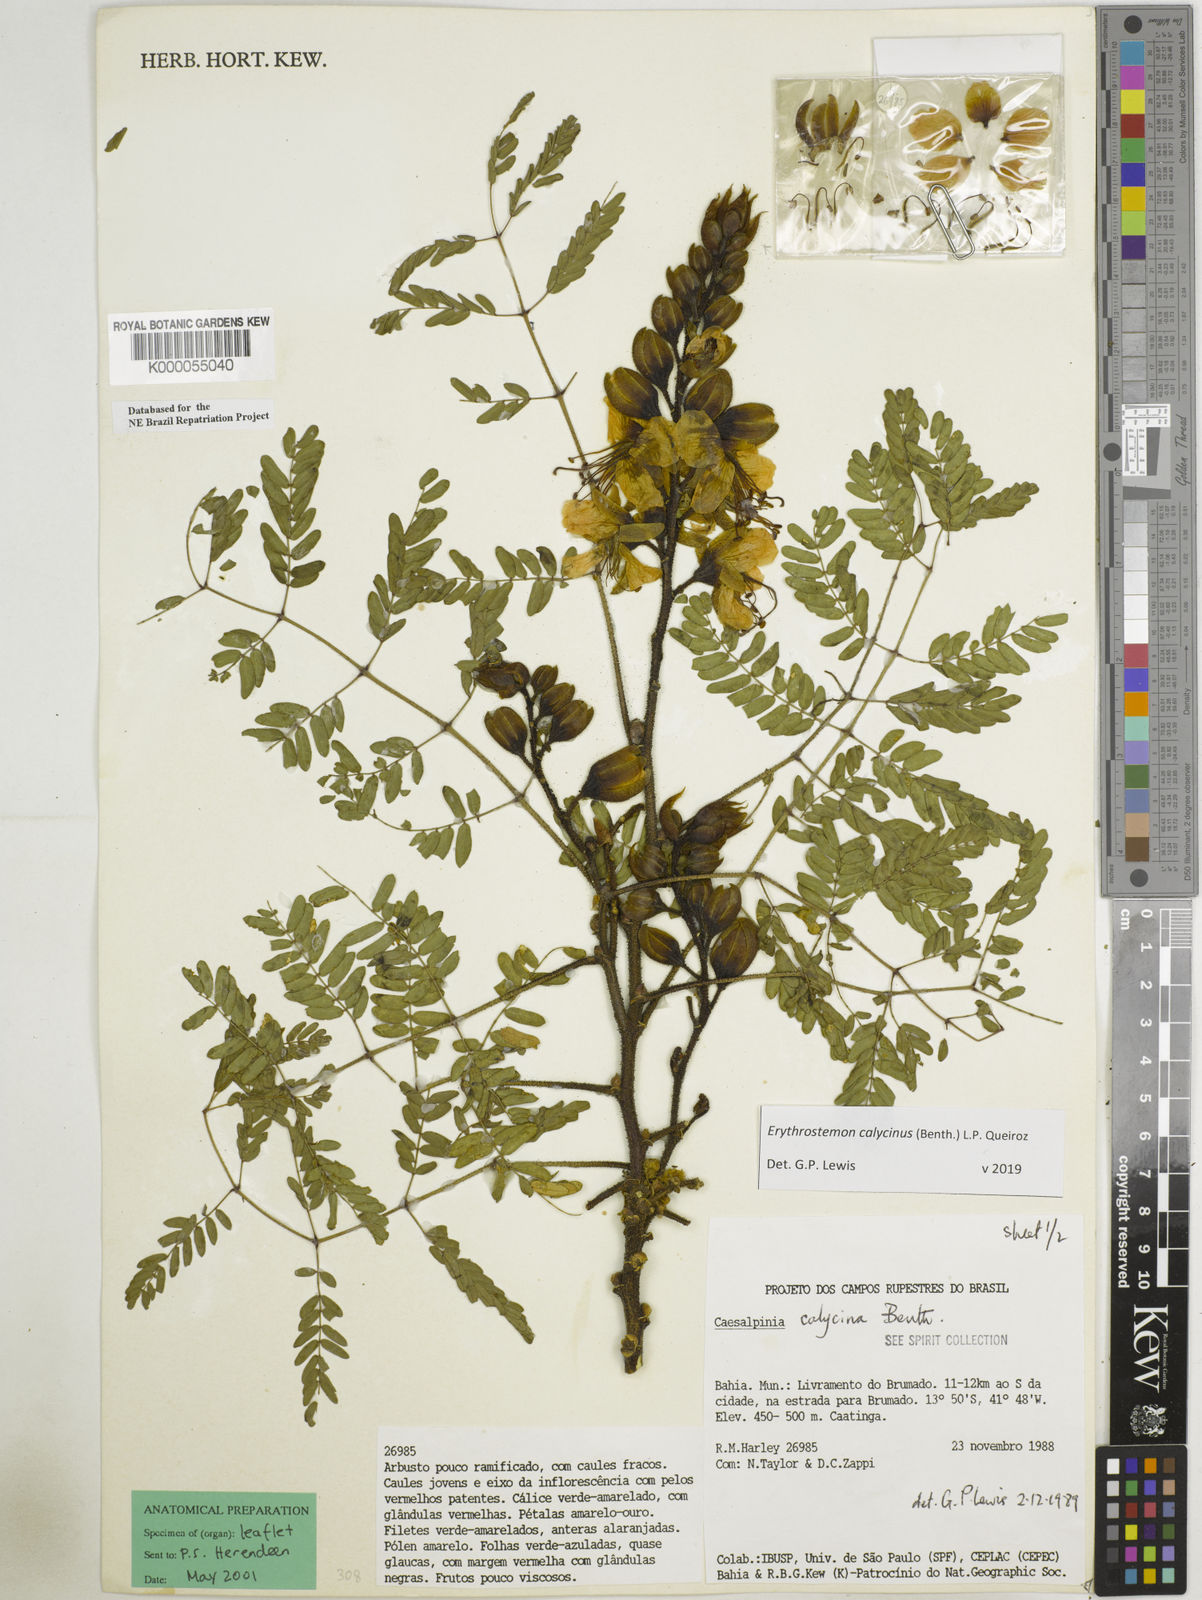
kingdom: Plantae
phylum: Tracheophyta
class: Magnoliopsida
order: Fabales
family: Fabaceae
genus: Erythrostemon
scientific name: Erythrostemon calycinus
